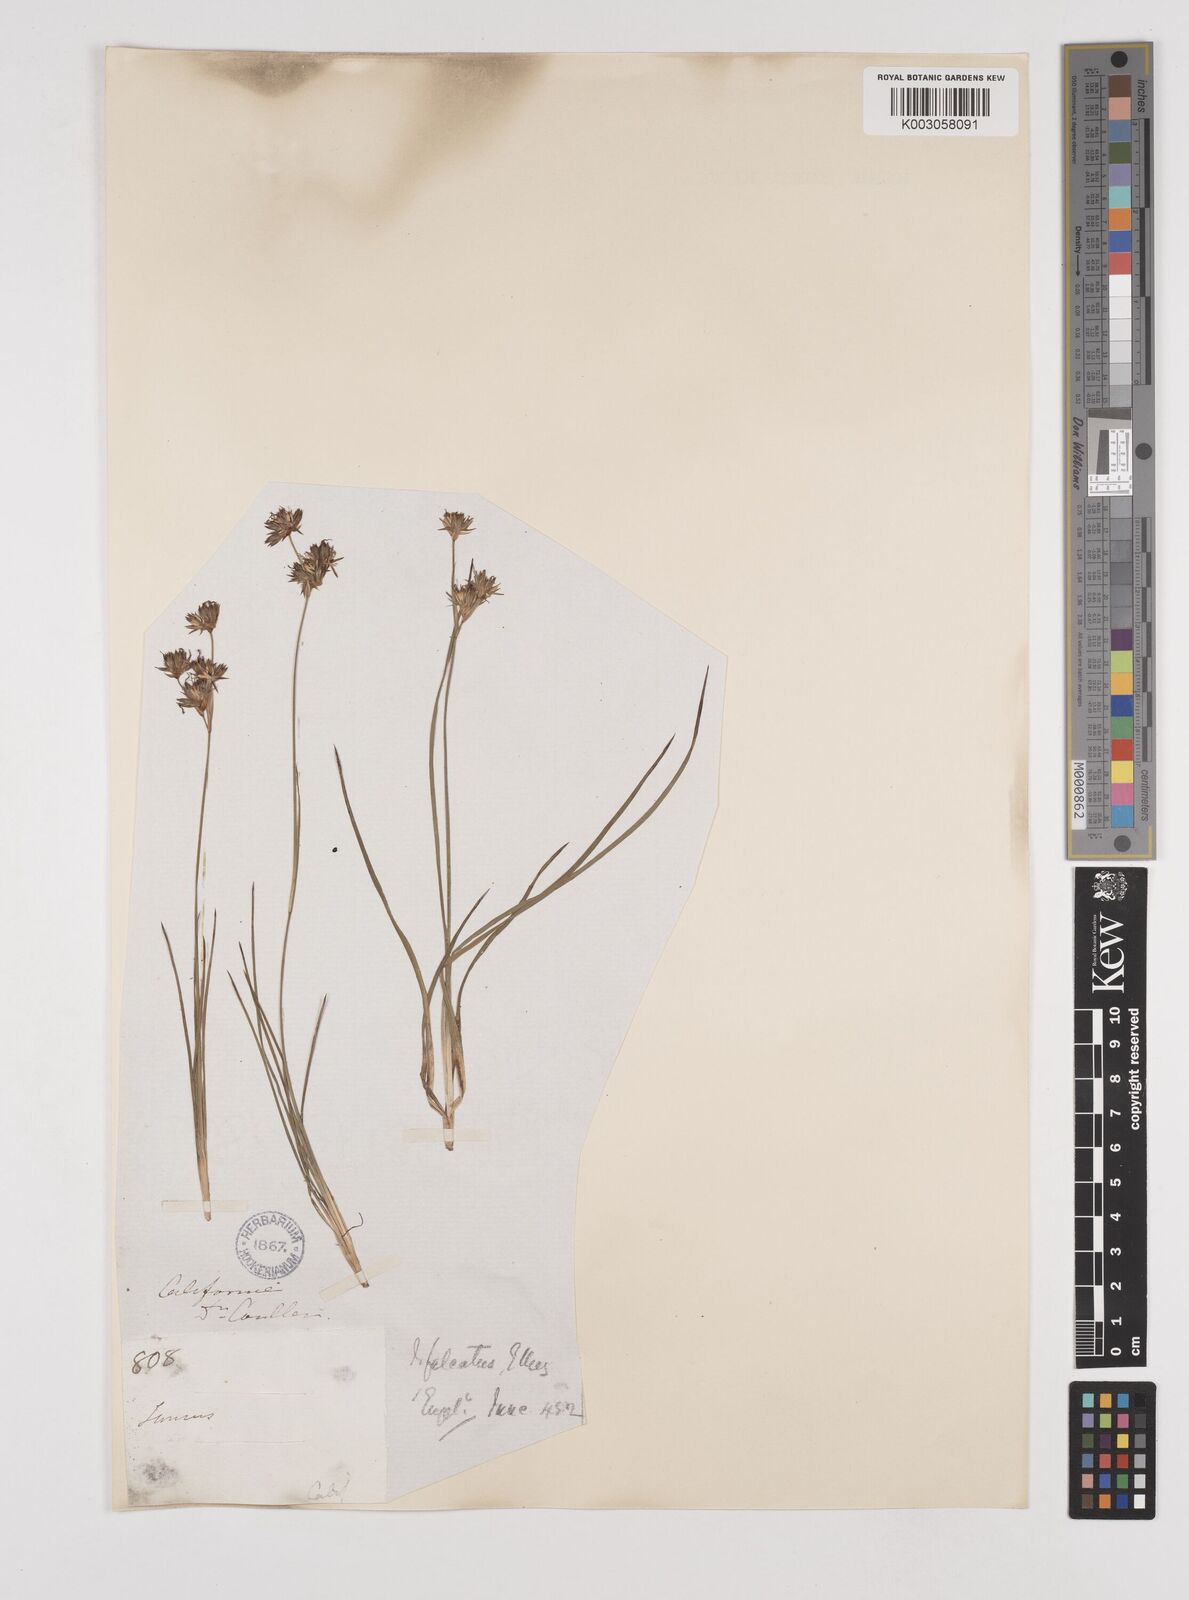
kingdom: Plantae
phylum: Tracheophyta
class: Liliopsida
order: Poales
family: Juncaceae
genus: Juncus
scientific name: Juncus falcatus
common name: Sickle-leaf rush
